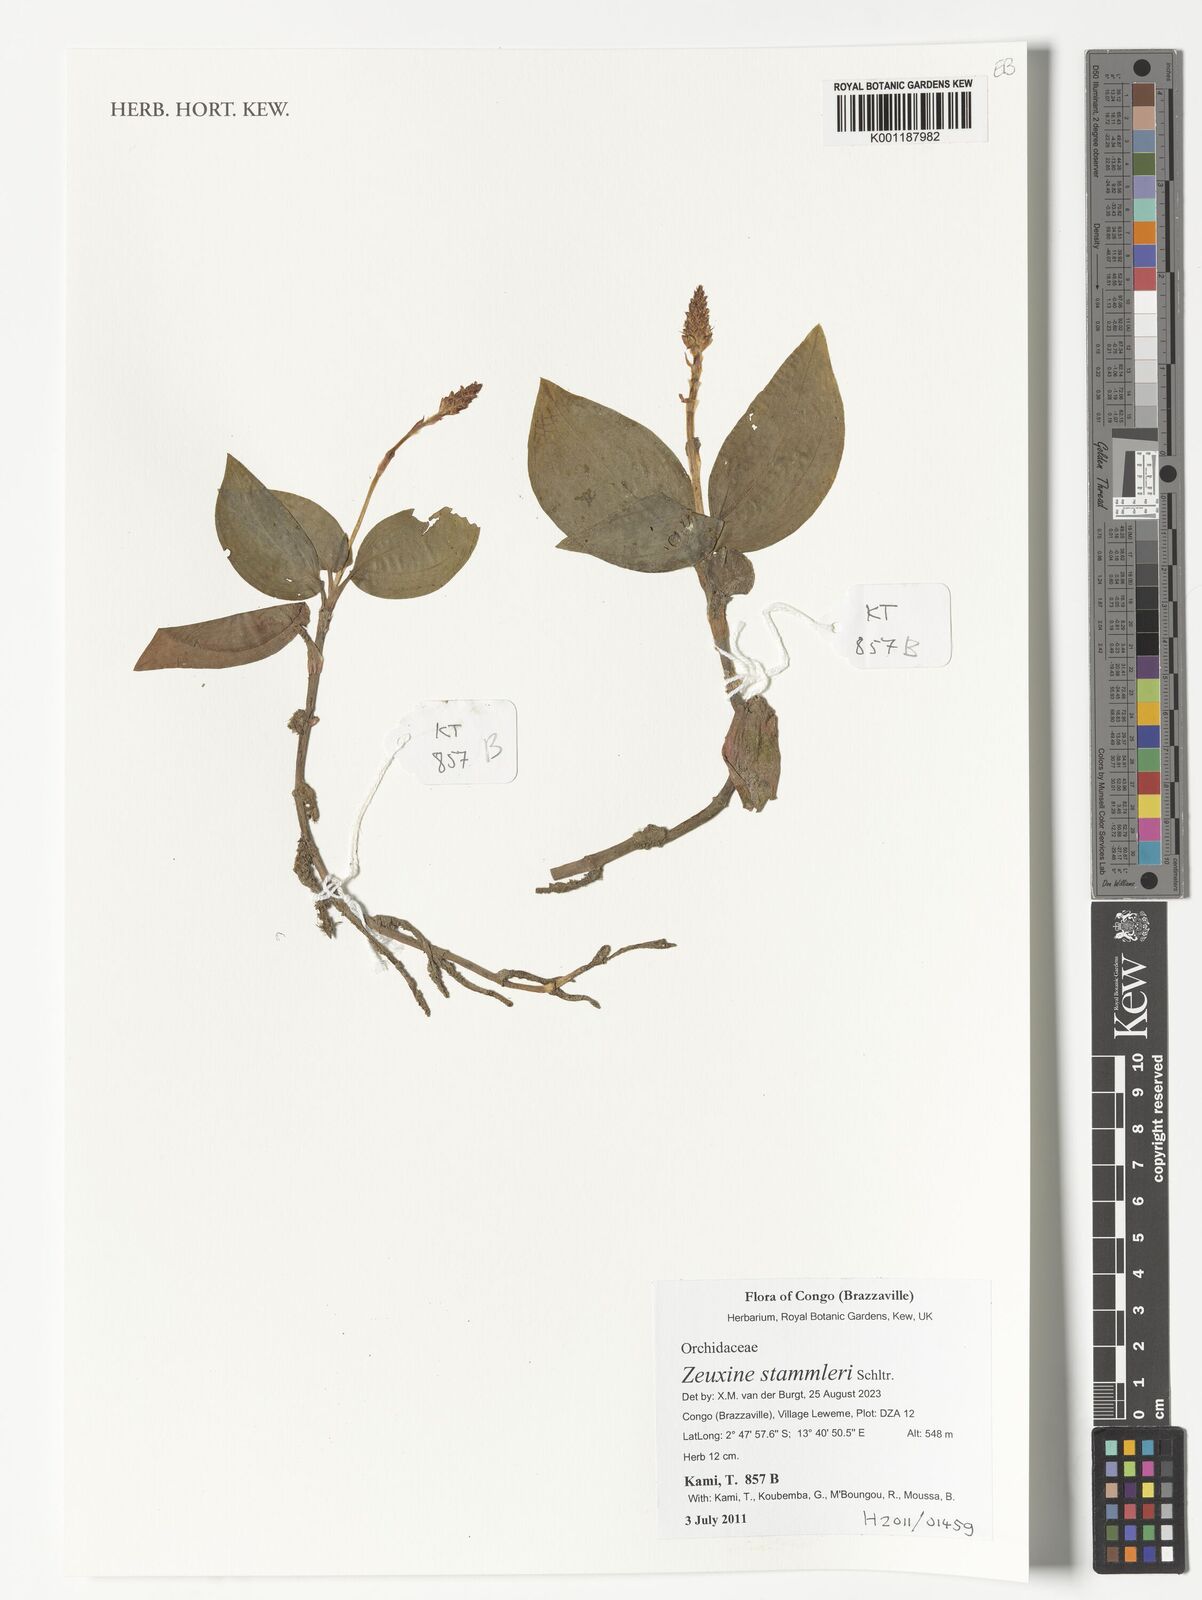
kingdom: Plantae
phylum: Tracheophyta
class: Liliopsida
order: Asparagales
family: Orchidaceae
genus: Zeuxine
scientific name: Zeuxine stammleri
